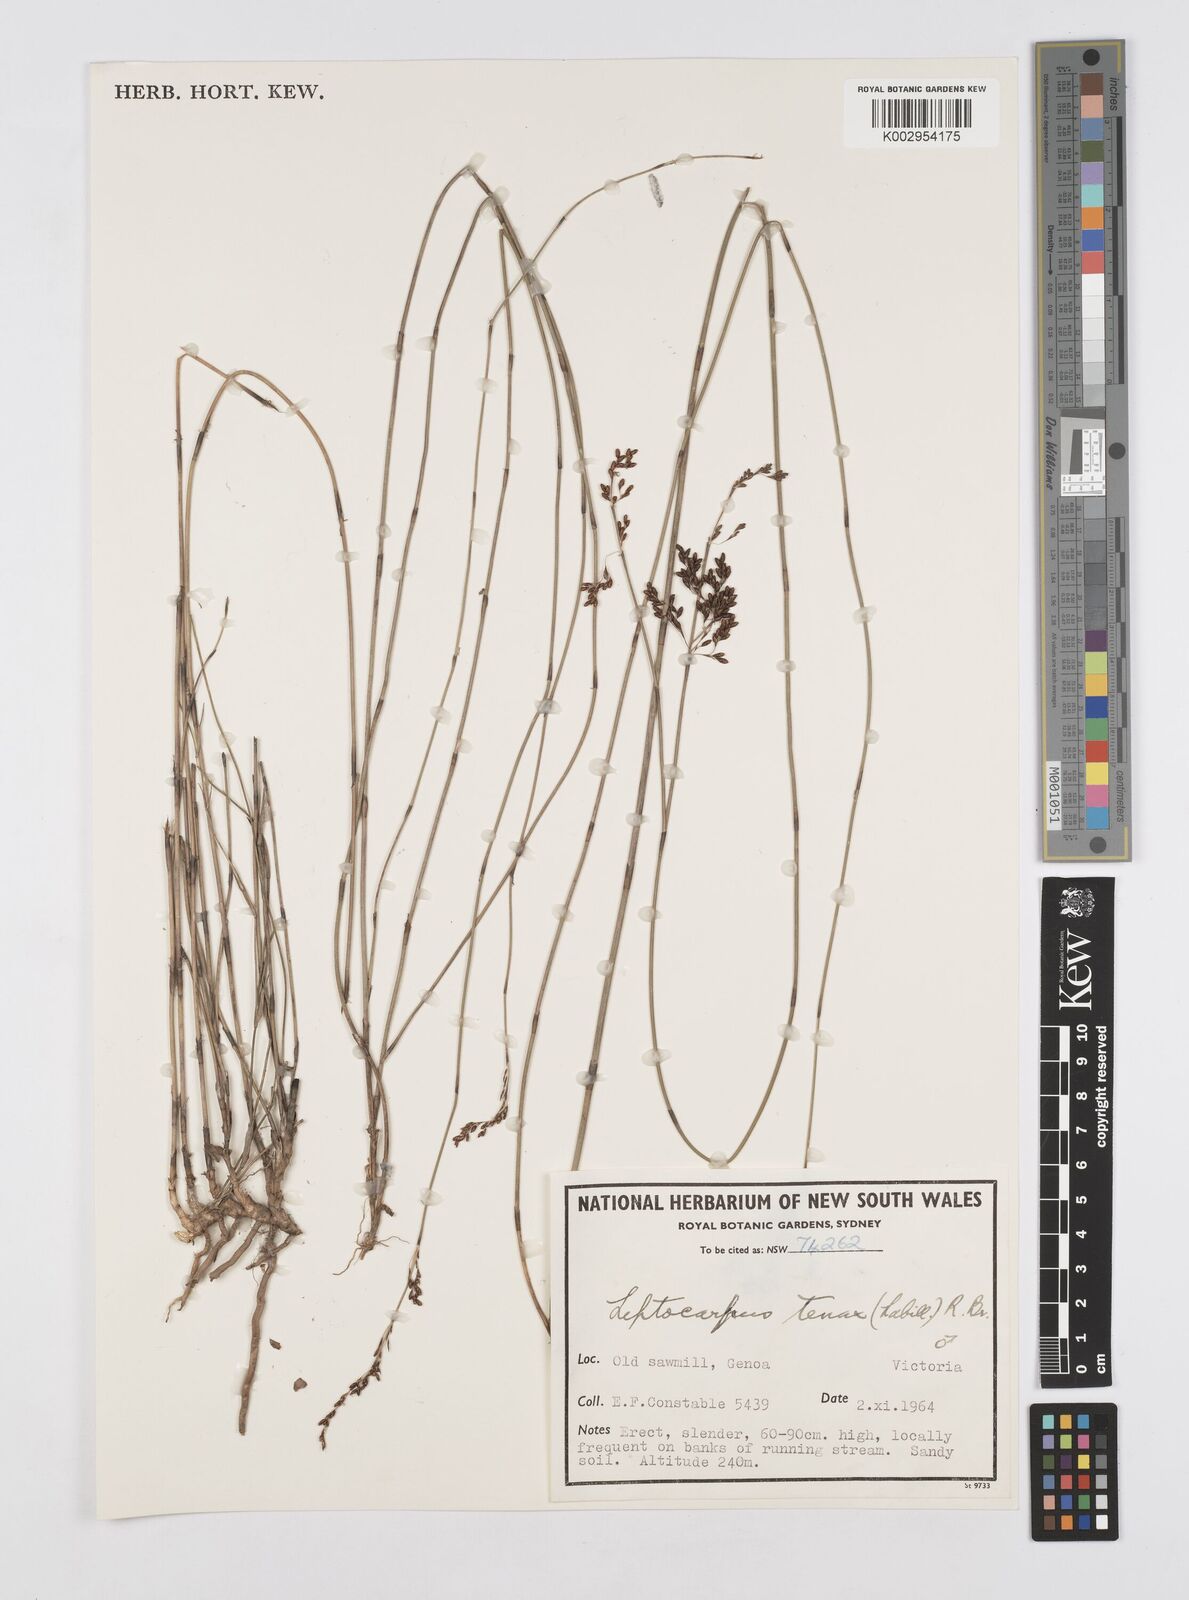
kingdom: Plantae
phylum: Tracheophyta
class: Liliopsida
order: Poales
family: Restionaceae
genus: Leptocarpus
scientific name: Leptocarpus tenax
